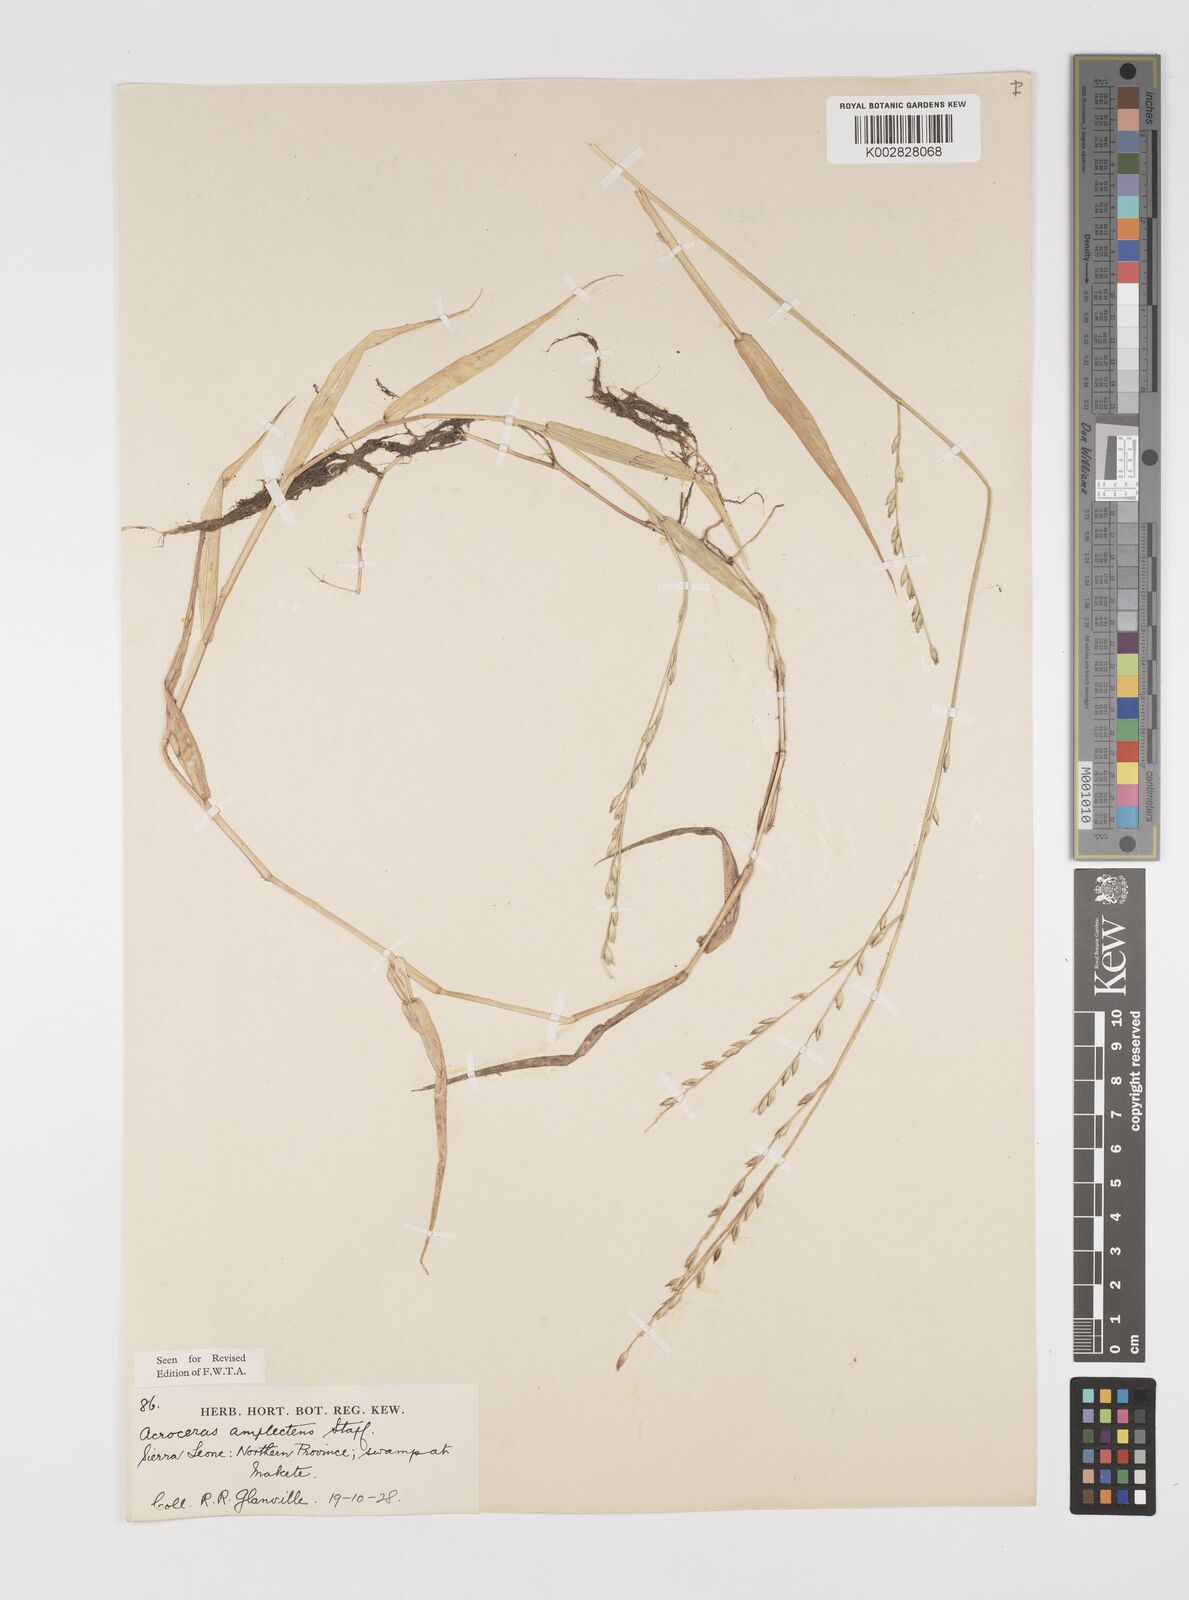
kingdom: Plantae
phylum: Tracheophyta
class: Liliopsida
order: Poales
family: Poaceae
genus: Acroceras
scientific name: Acroceras amplectens
